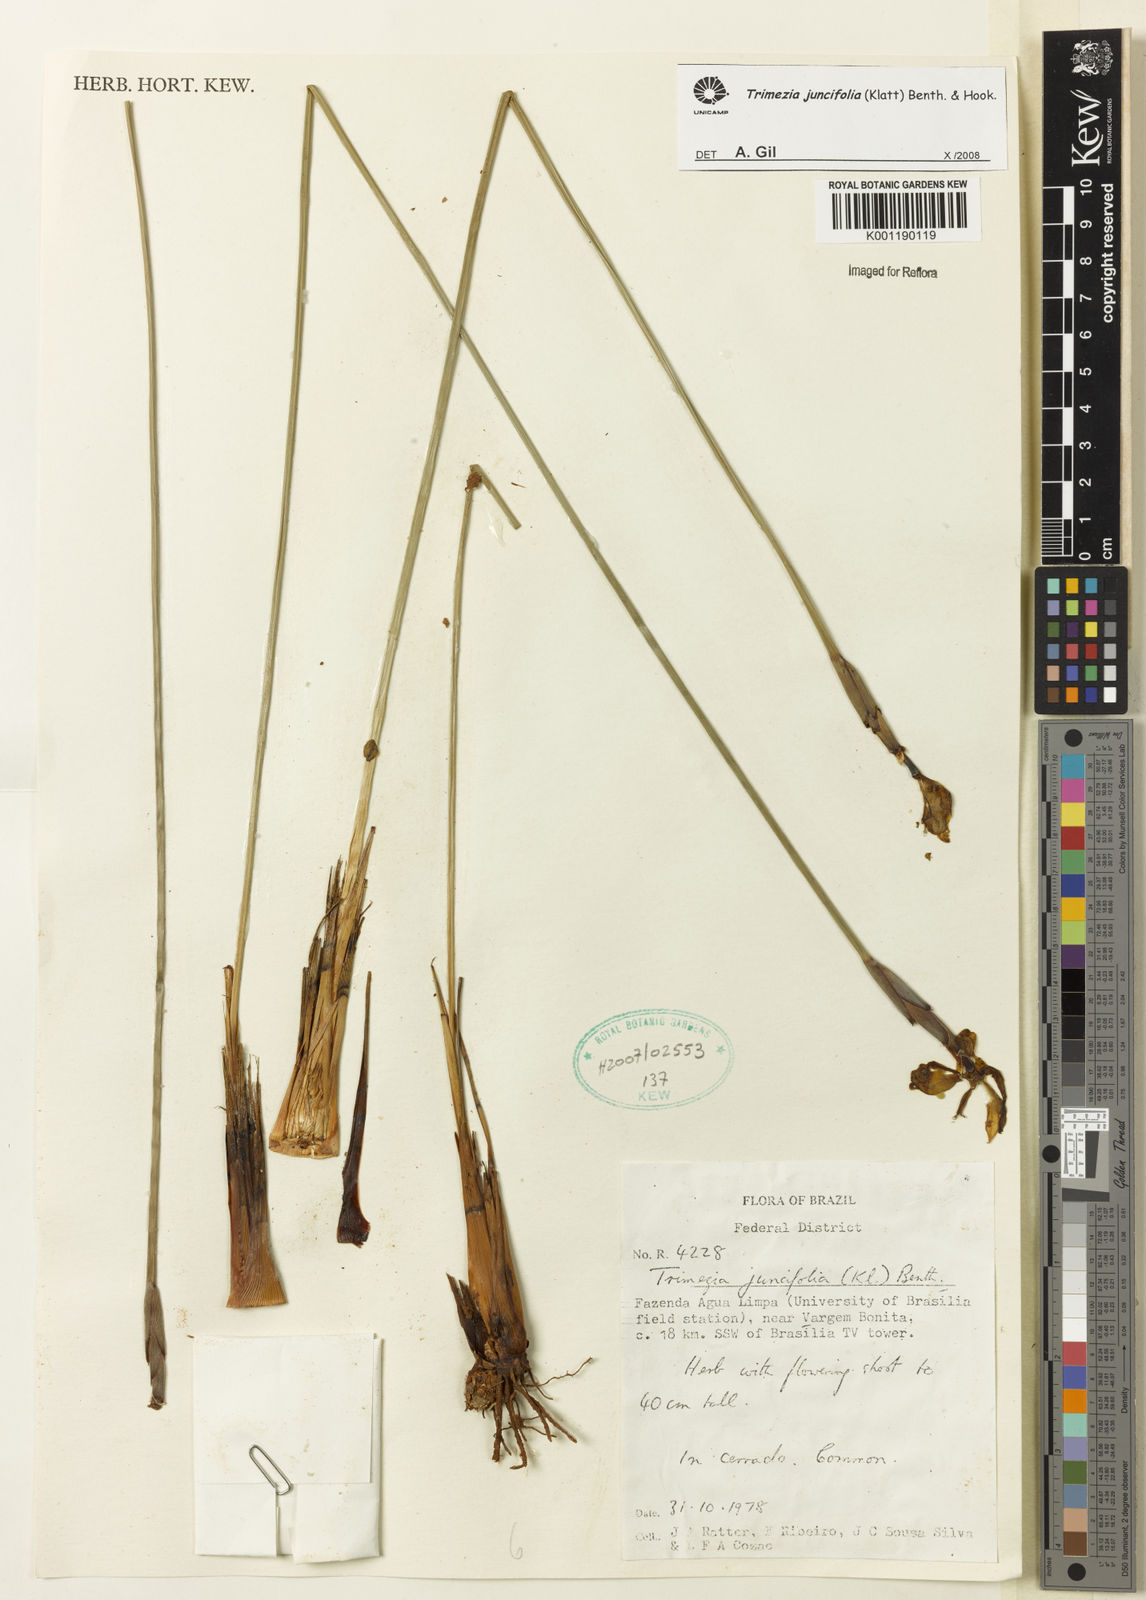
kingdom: Plantae
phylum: Tracheophyta
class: Liliopsida
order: Asparagales
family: Iridaceae
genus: Trimezia
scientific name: Trimezia juncifolia
